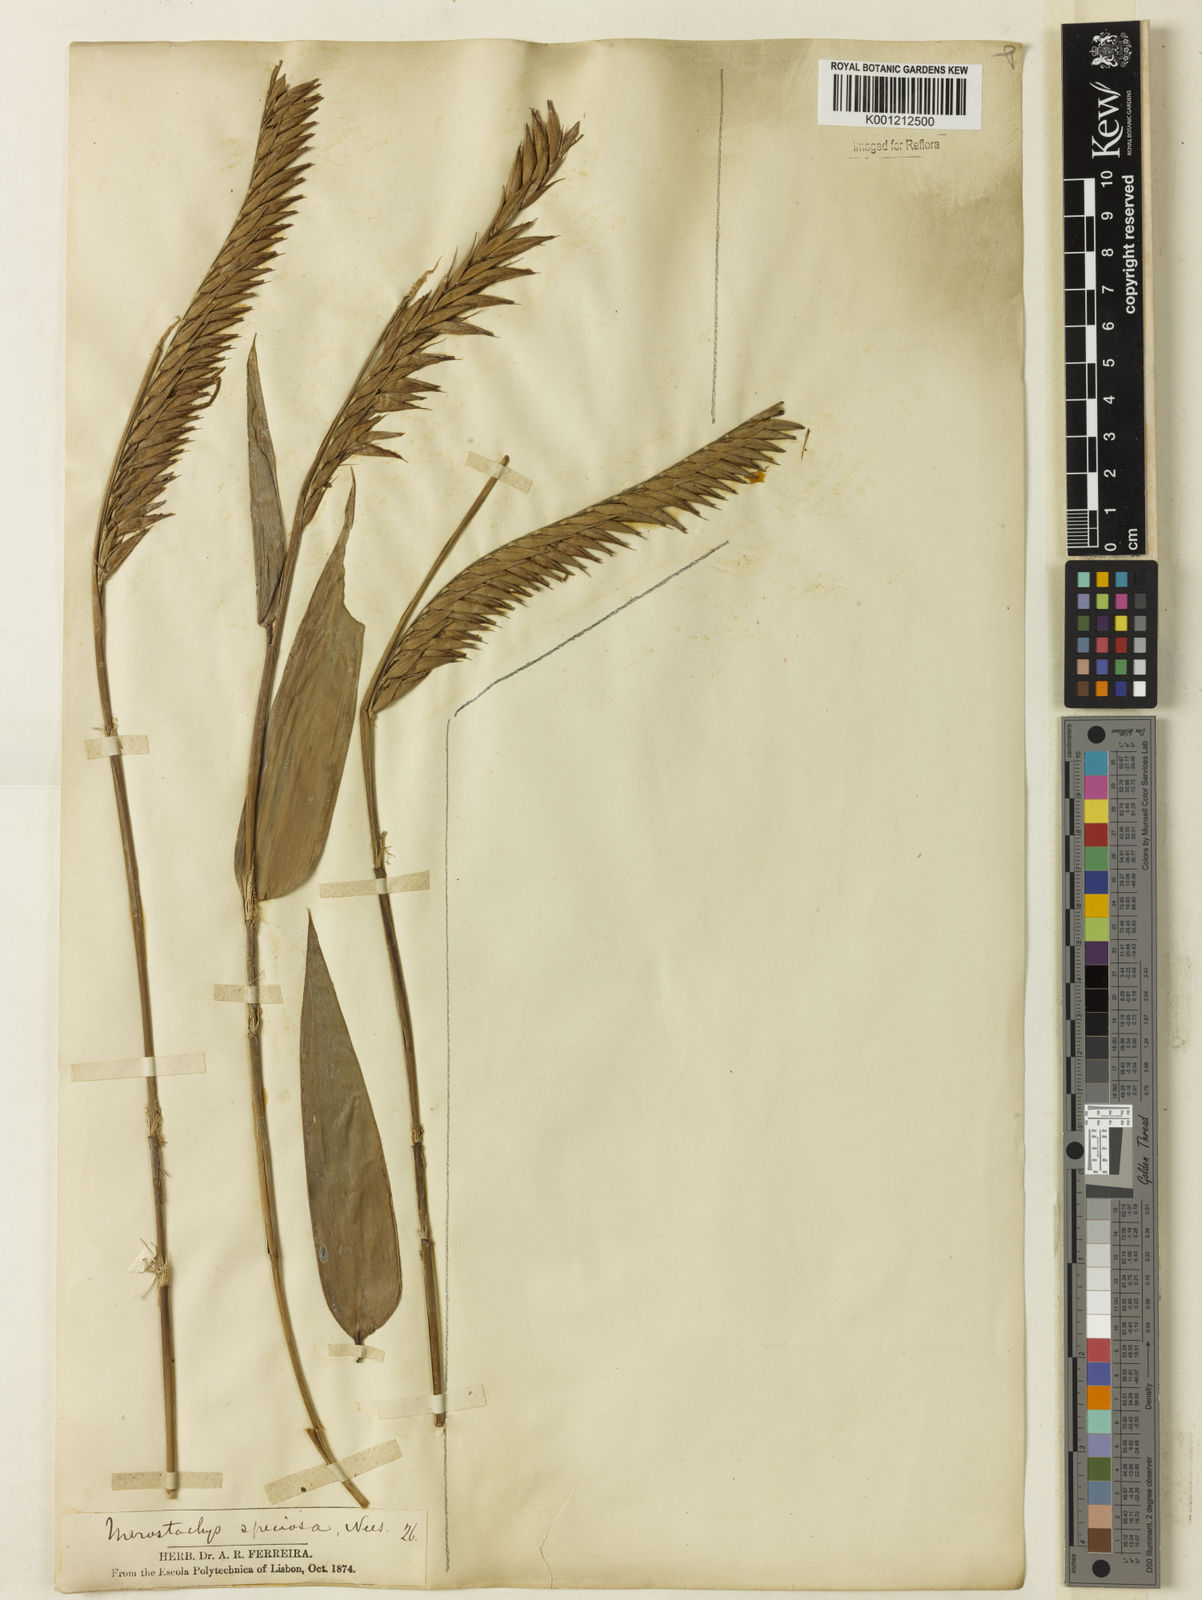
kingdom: Plantae
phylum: Tracheophyta
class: Liliopsida
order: Poales
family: Poaceae
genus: Merostachys
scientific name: Merostachys speciosa
